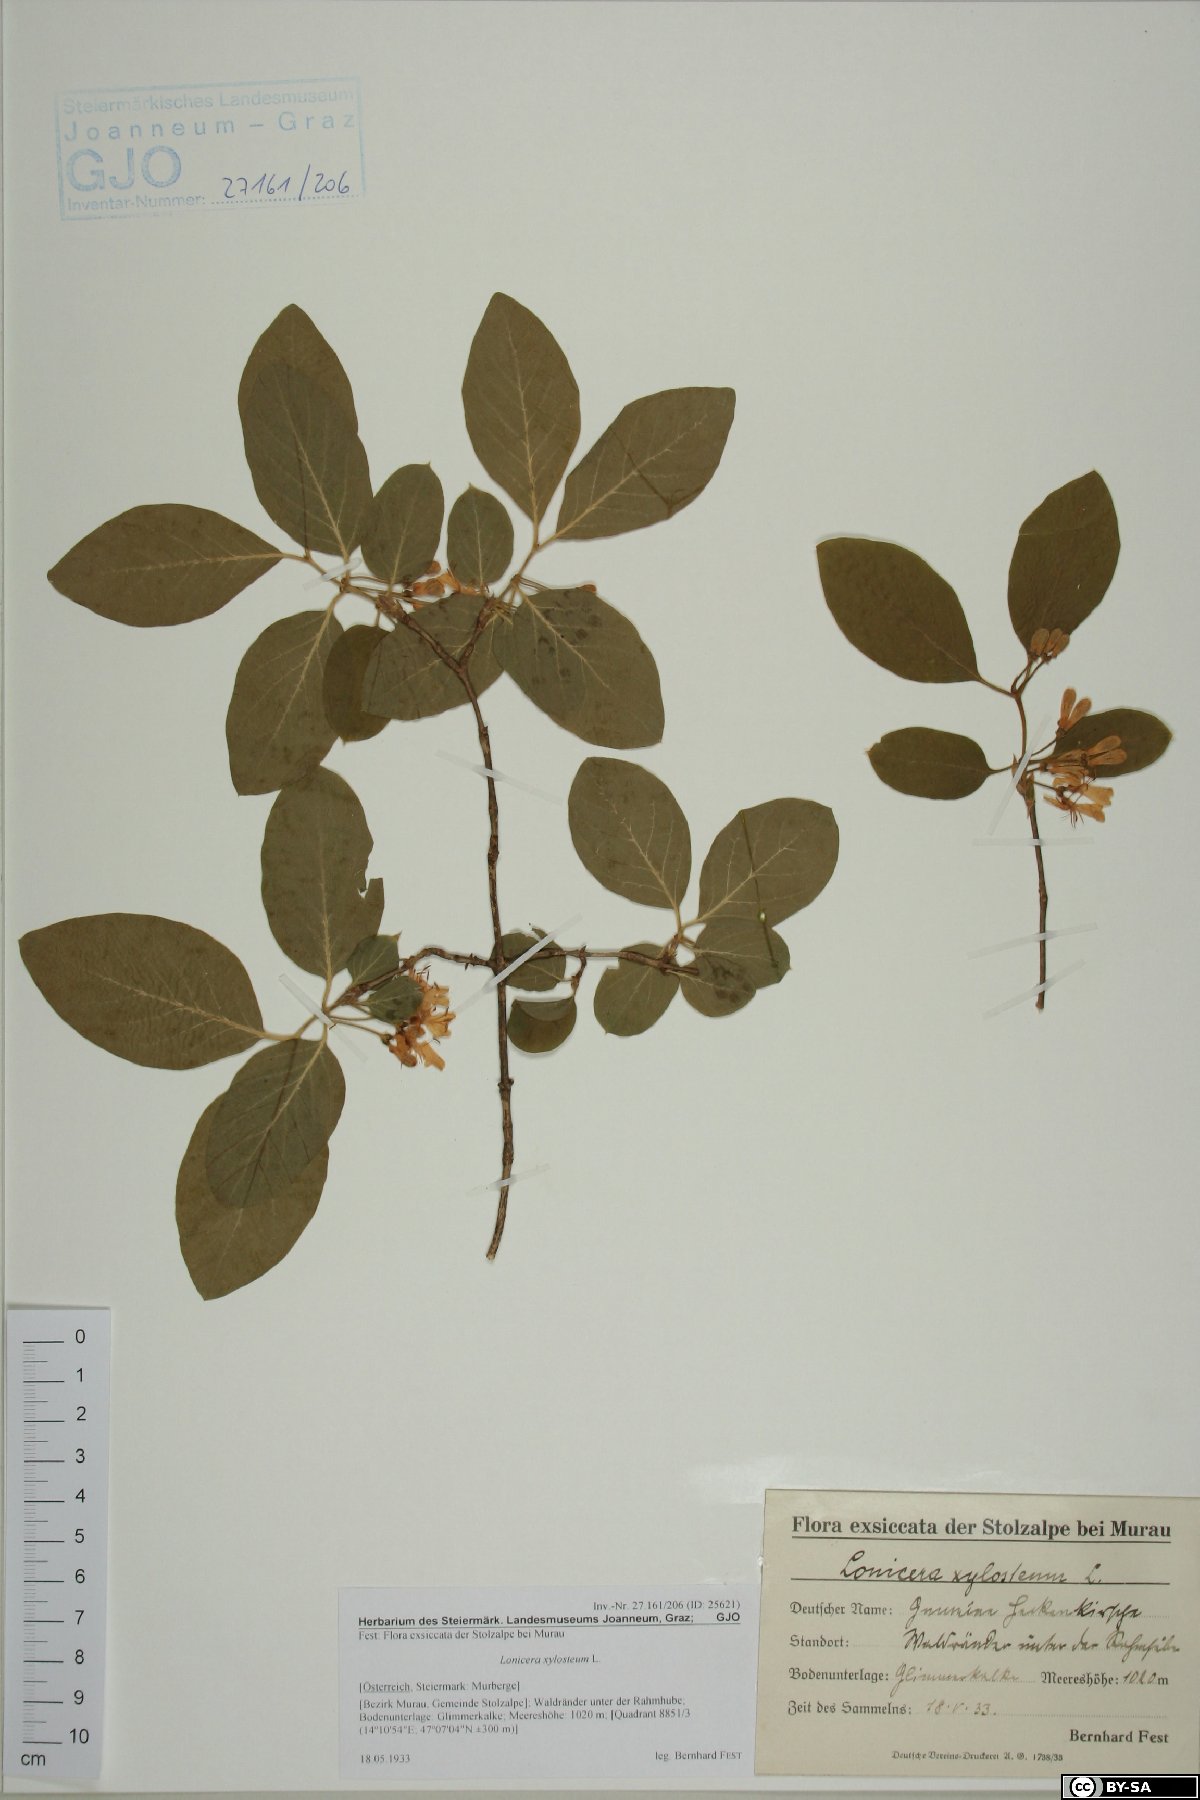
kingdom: Plantae
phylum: Tracheophyta
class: Magnoliopsida
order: Dipsacales
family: Caprifoliaceae
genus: Lonicera
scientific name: Lonicera xylosteum
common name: Fly honeysuckle
